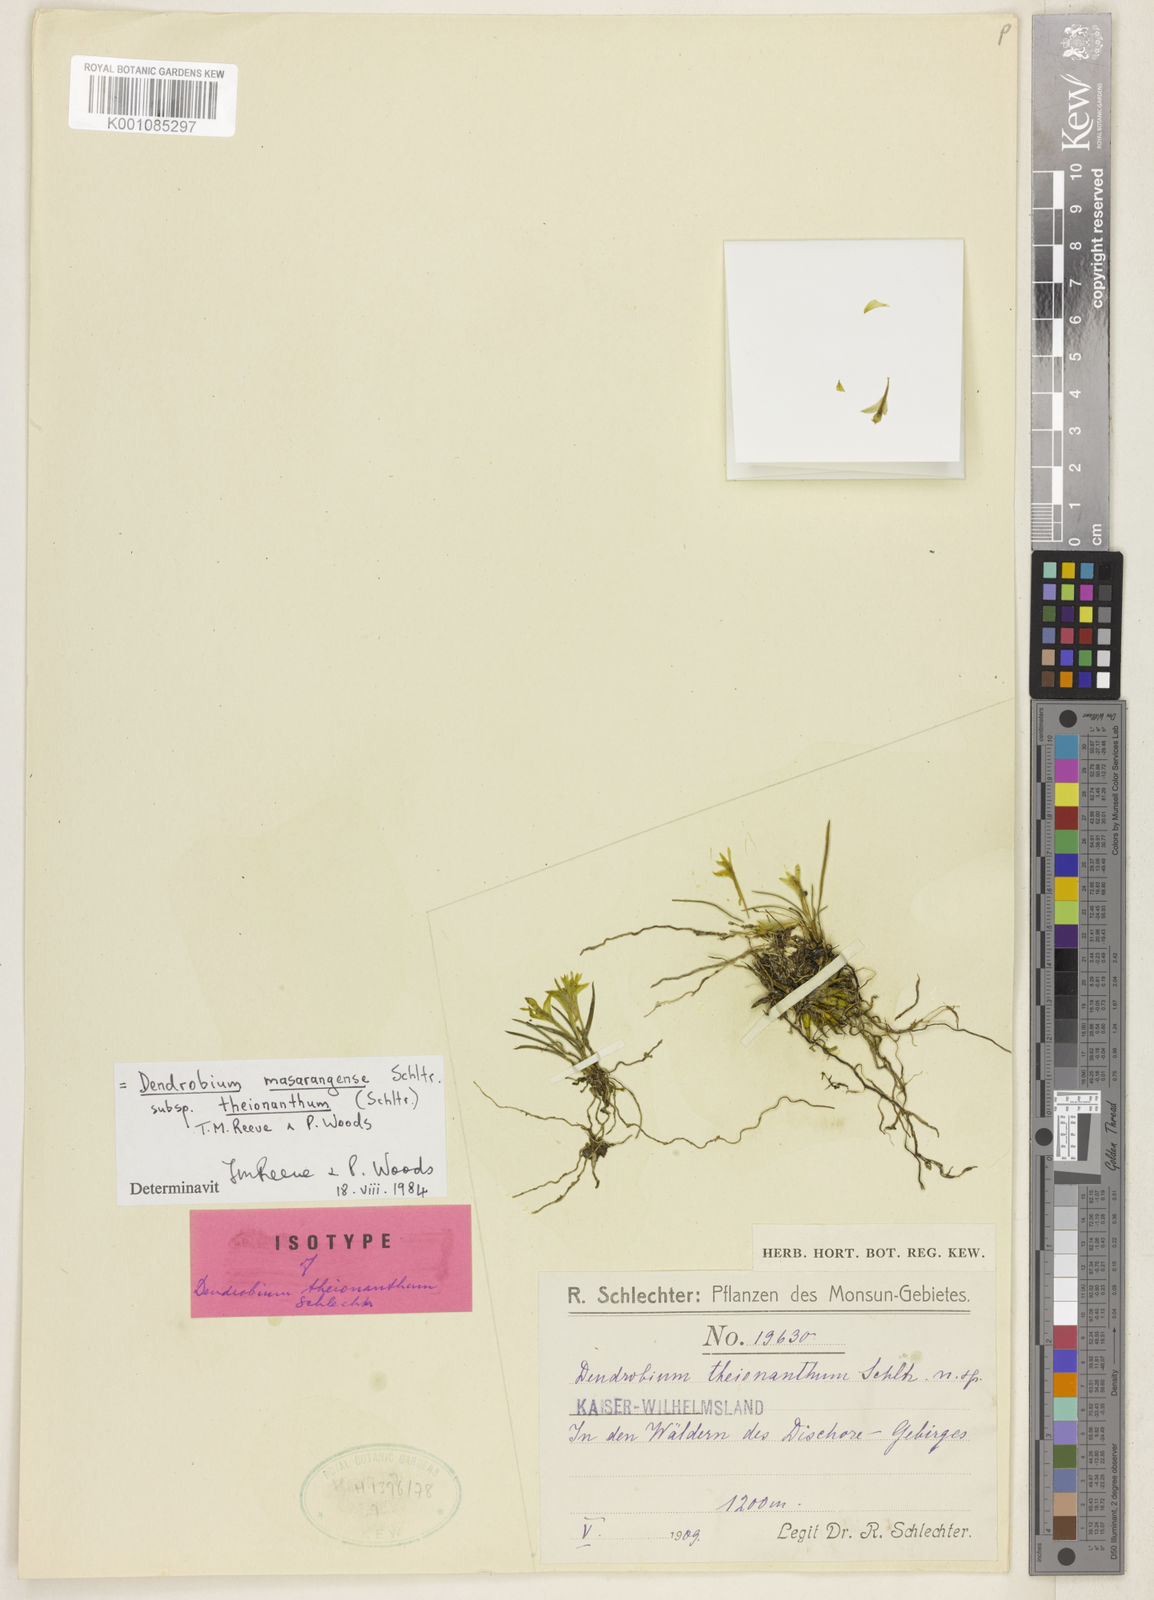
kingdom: Plantae
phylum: Tracheophyta
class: Liliopsida
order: Asparagales
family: Orchidaceae
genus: Dendrobium
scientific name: Dendrobium masarangense
